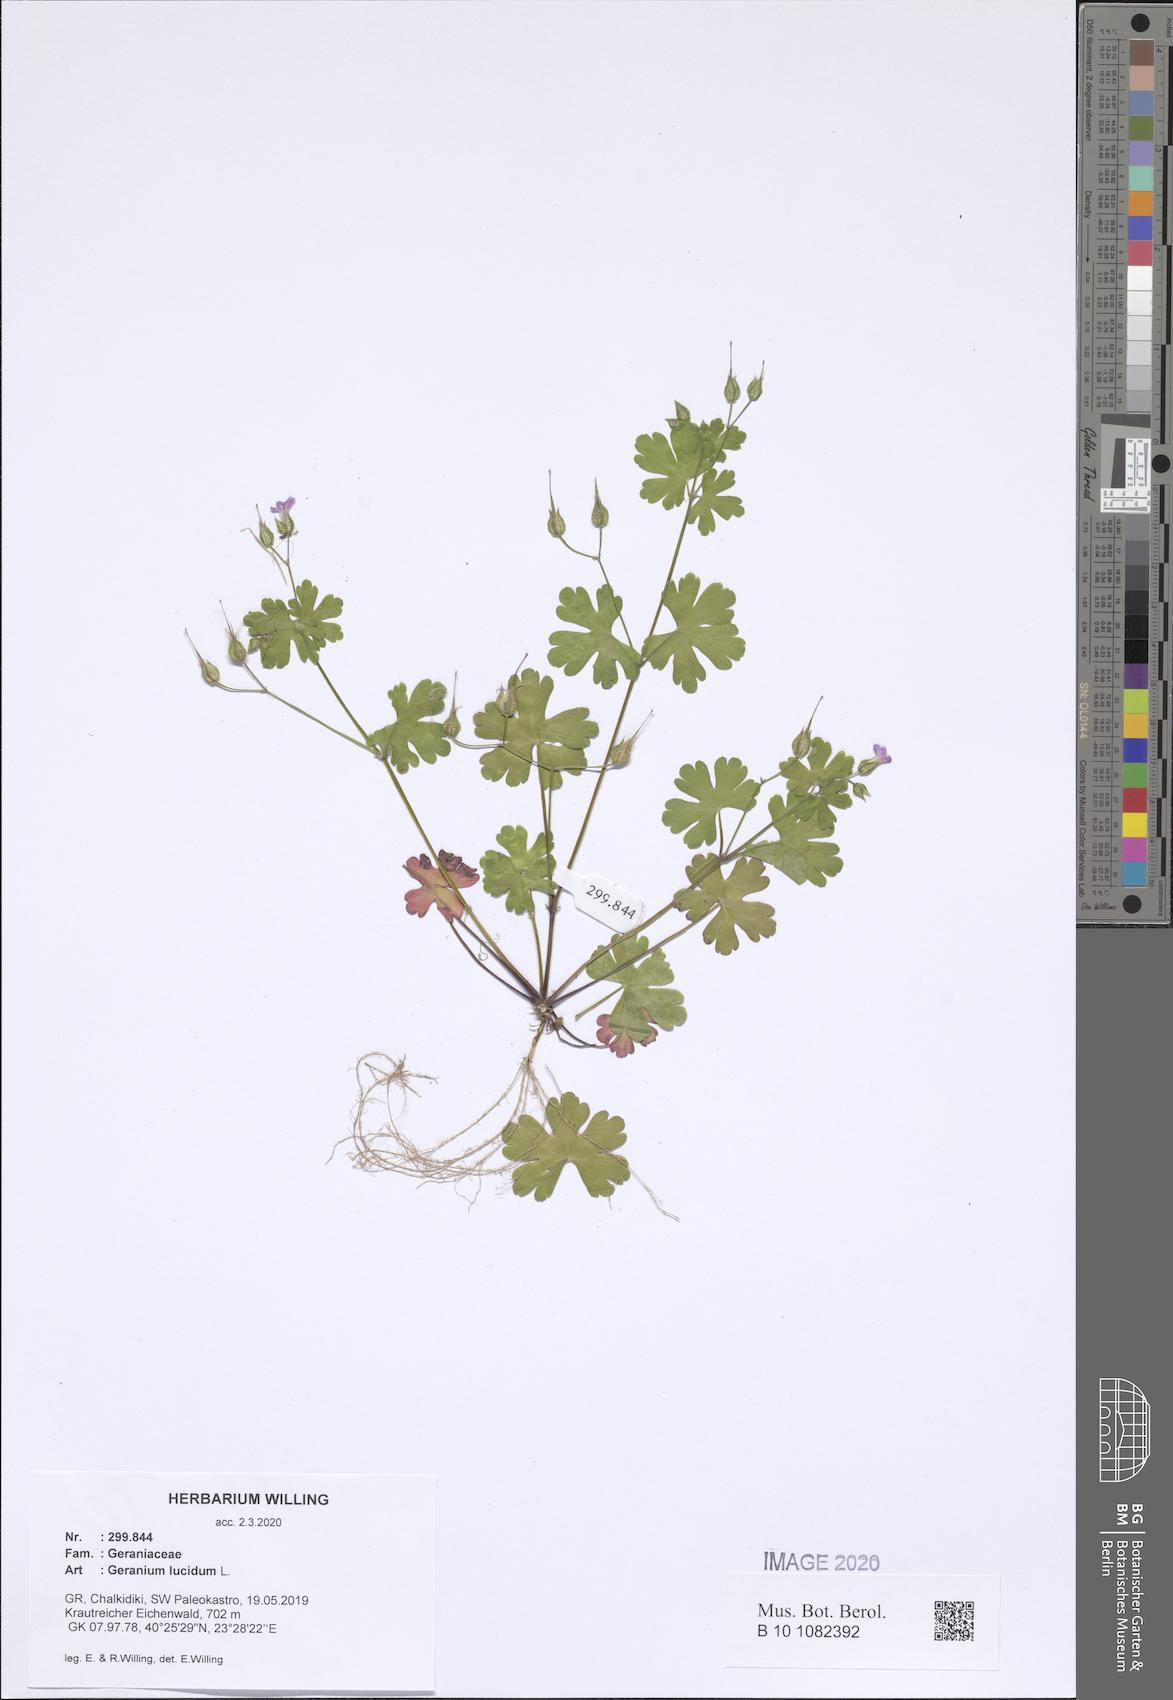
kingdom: Plantae
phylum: Tracheophyta
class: Magnoliopsida
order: Geraniales
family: Geraniaceae
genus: Geranium
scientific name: Geranium lucidum
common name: Shining crane's-bill
